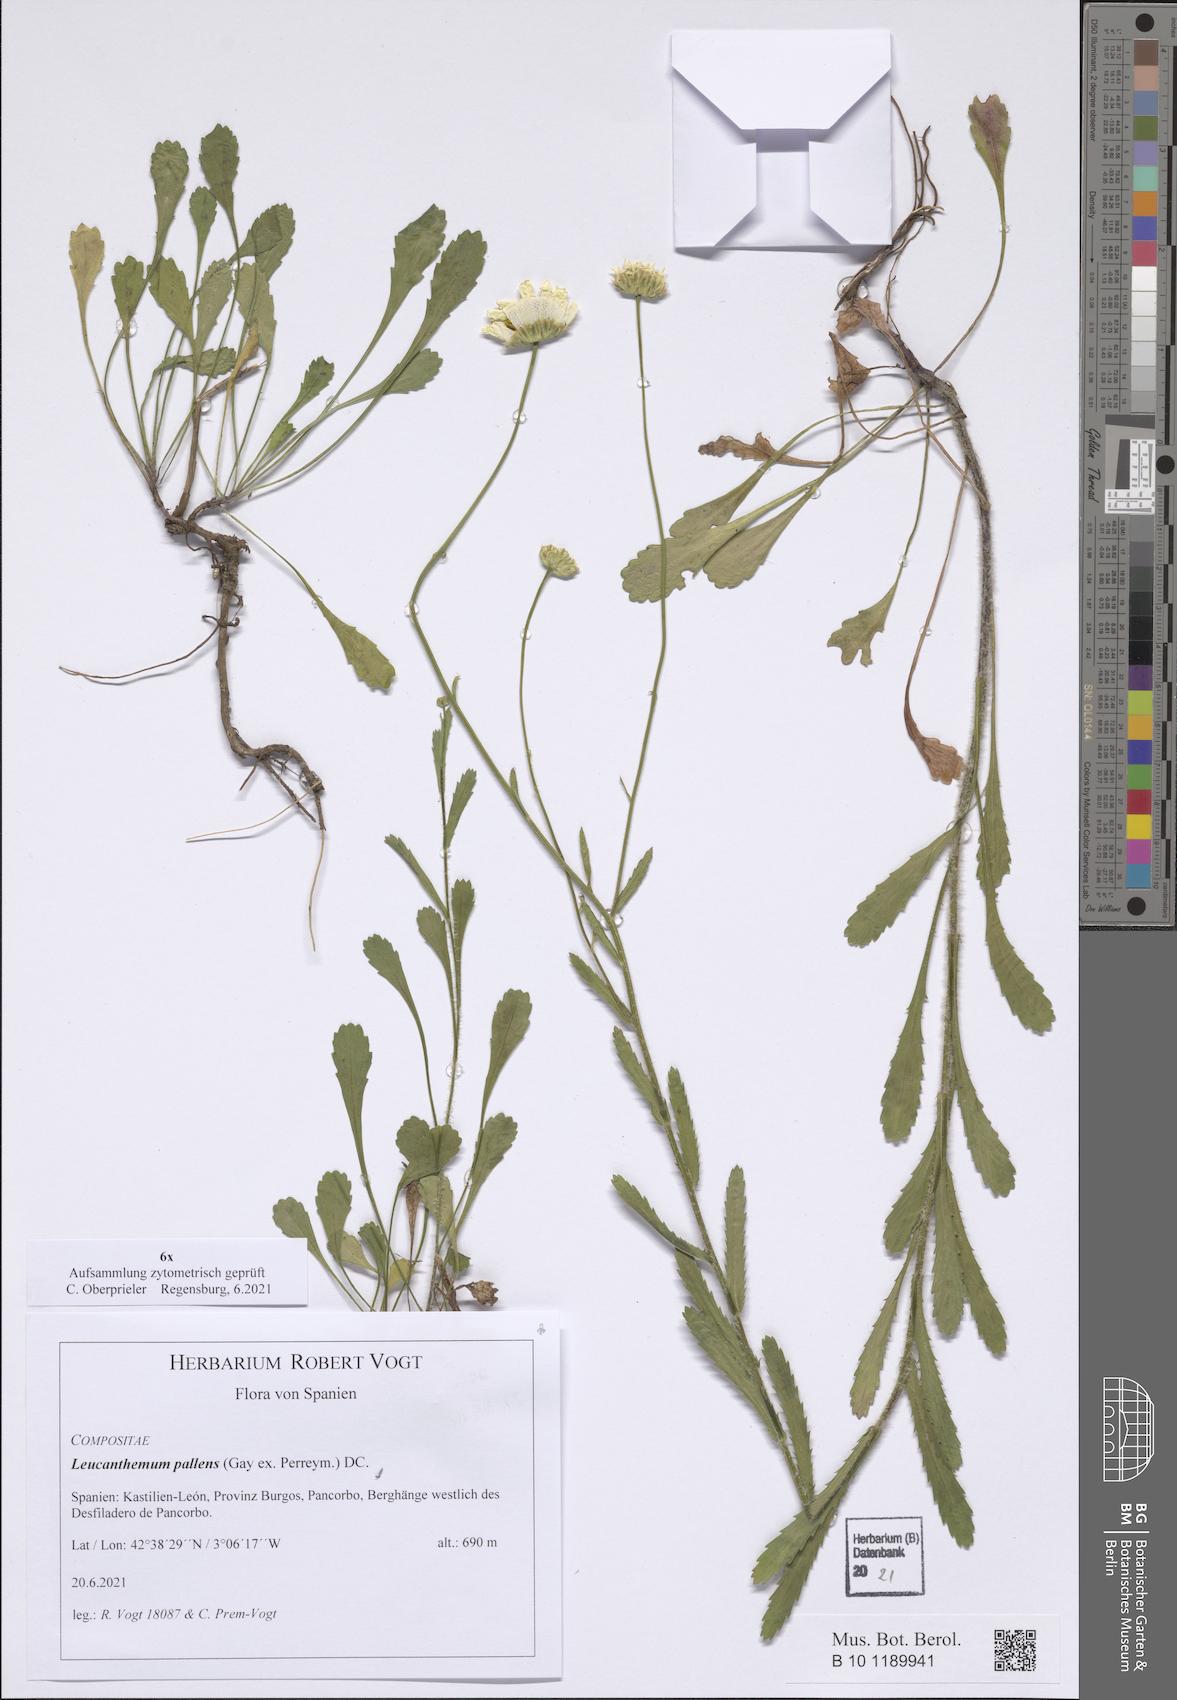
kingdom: Plantae
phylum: Tracheophyta
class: Magnoliopsida
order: Asterales
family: Asteraceae
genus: Leucanthemum
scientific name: Leucanthemum pallens
